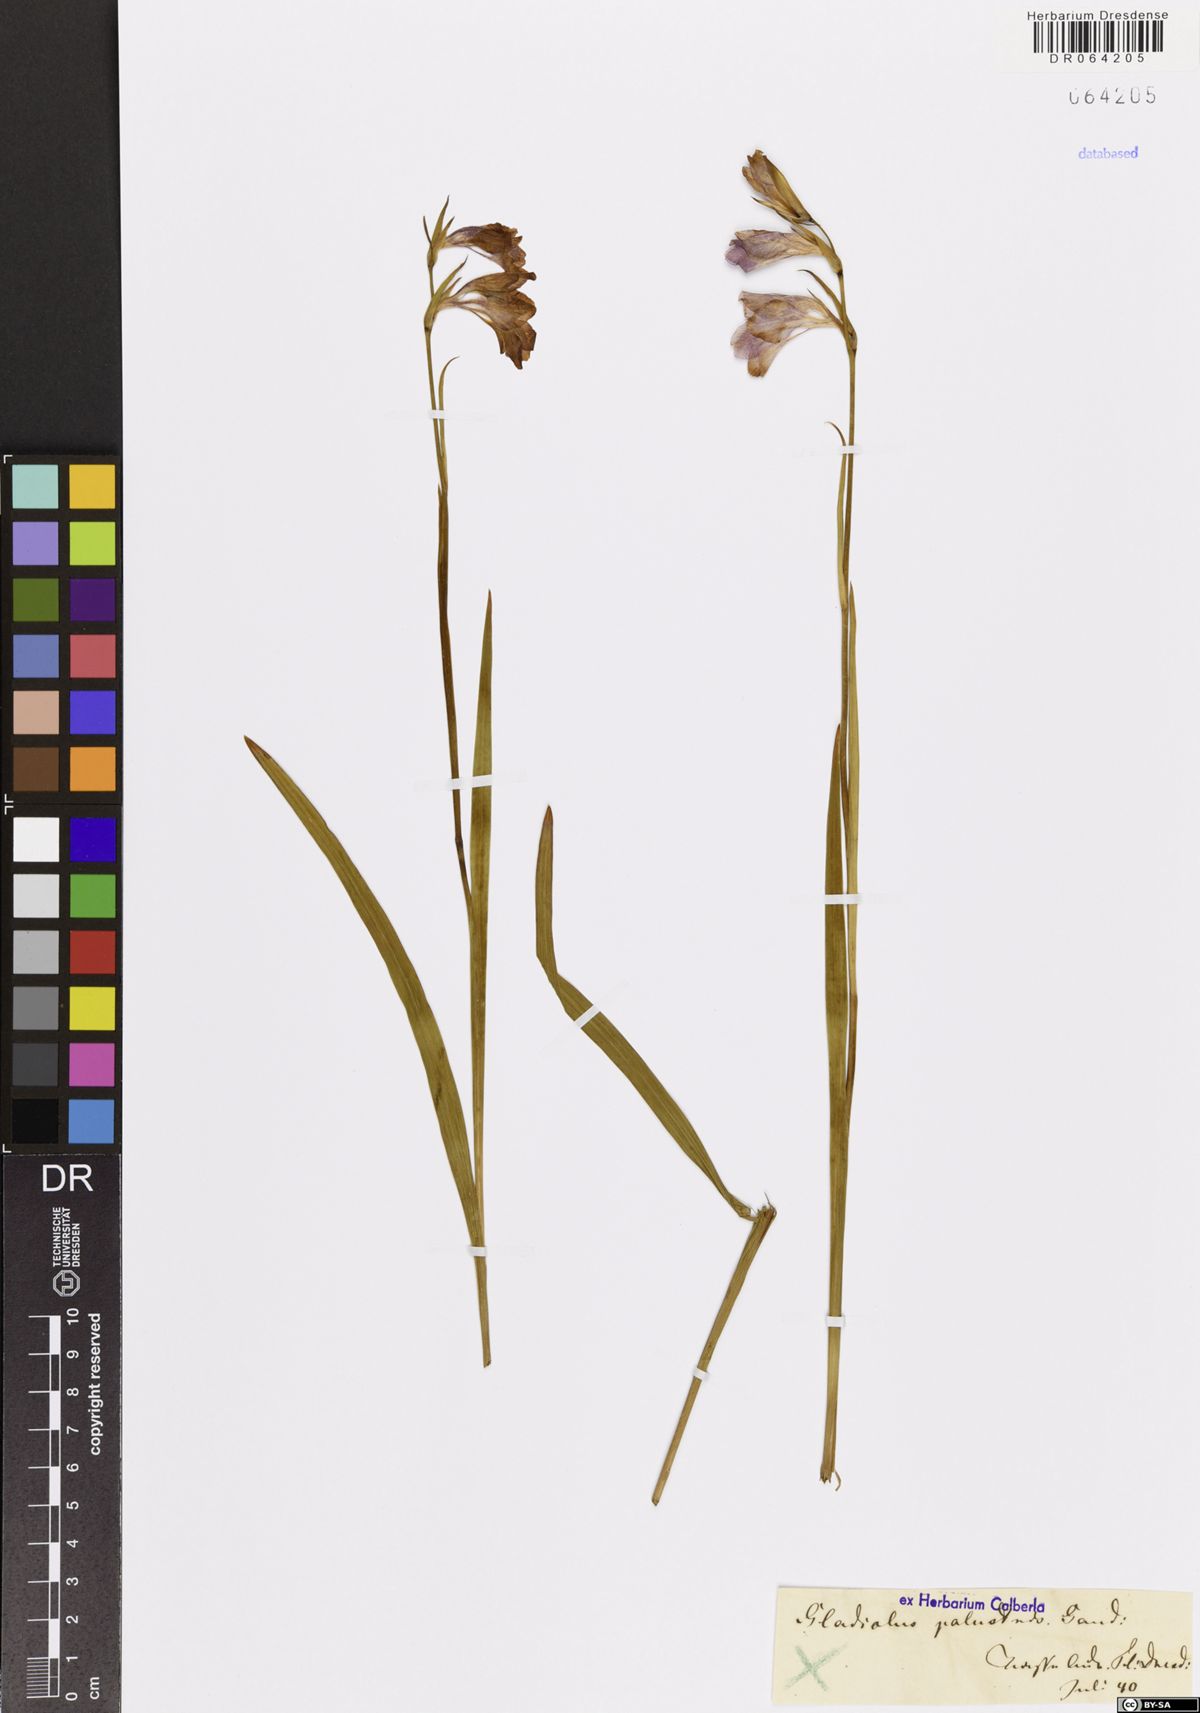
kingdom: Plantae
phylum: Tracheophyta
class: Liliopsida
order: Asparagales
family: Iridaceae
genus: Gladiolus
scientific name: Gladiolus palustris
